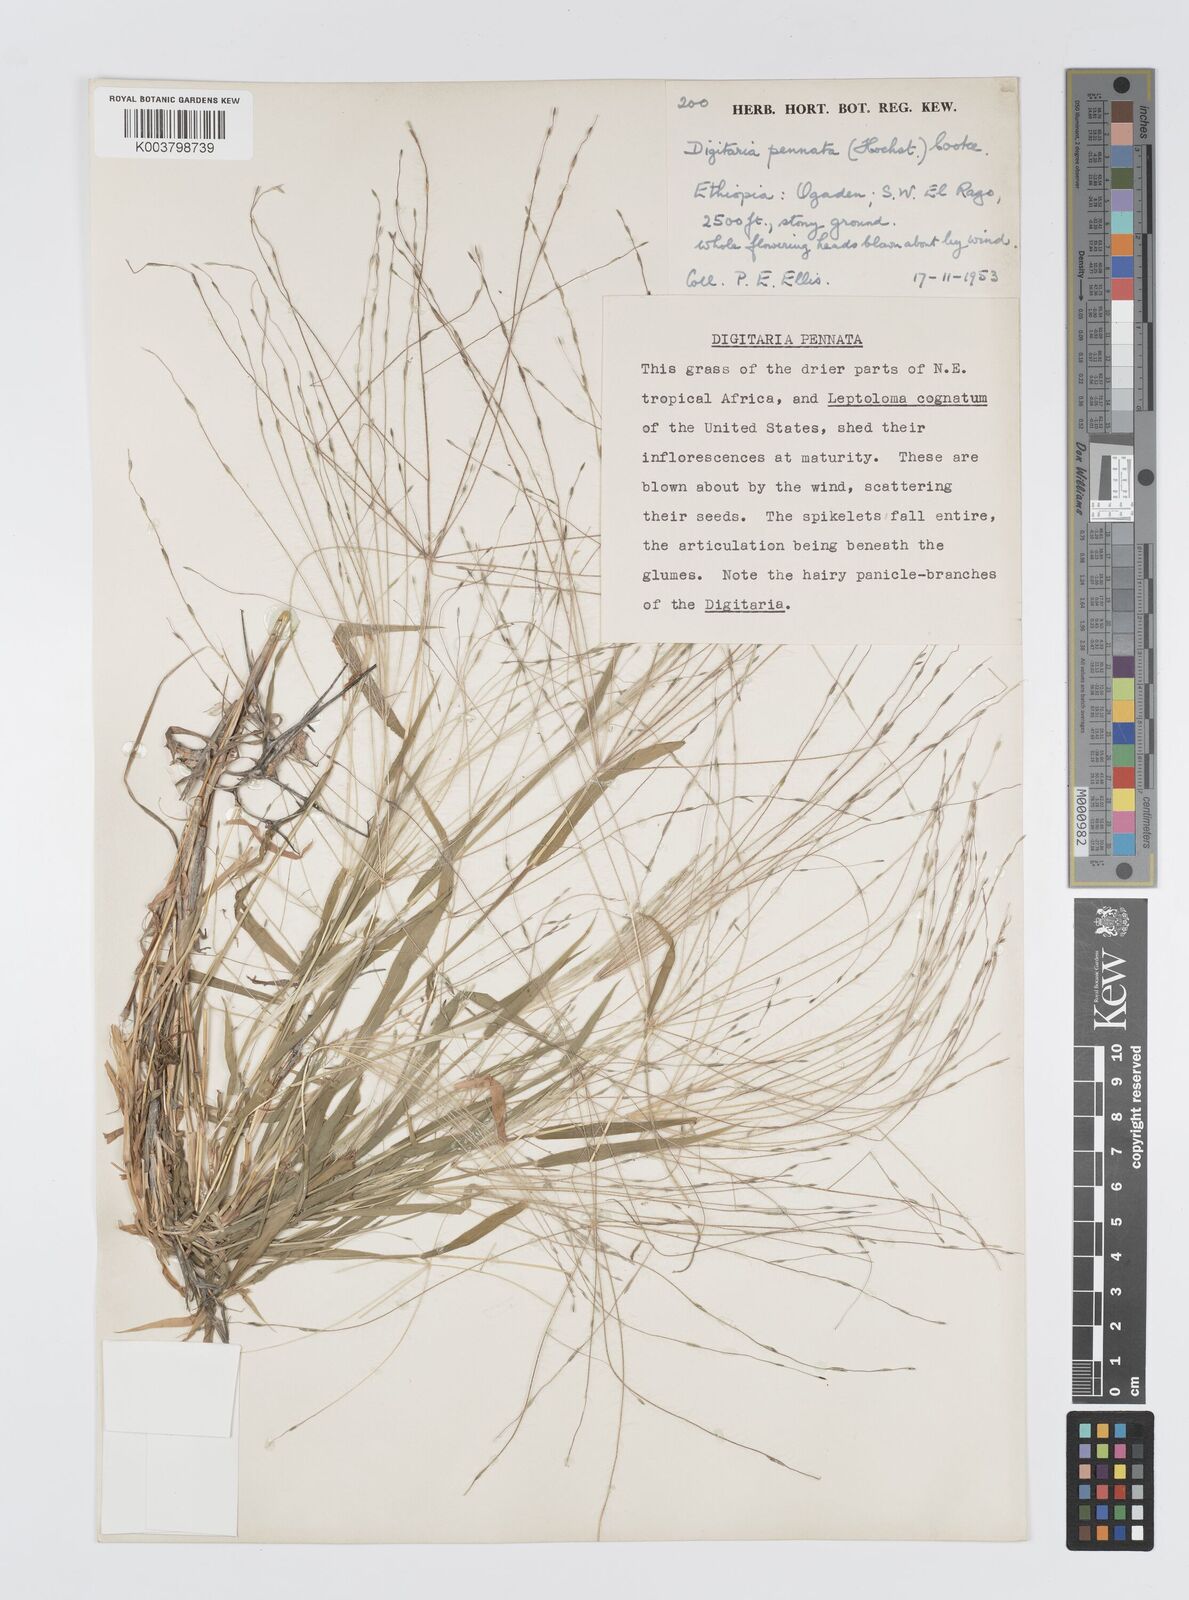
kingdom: Plantae
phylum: Tracheophyta
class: Liliopsida
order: Poales
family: Poaceae
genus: Digitaria
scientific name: Digitaria pennata
